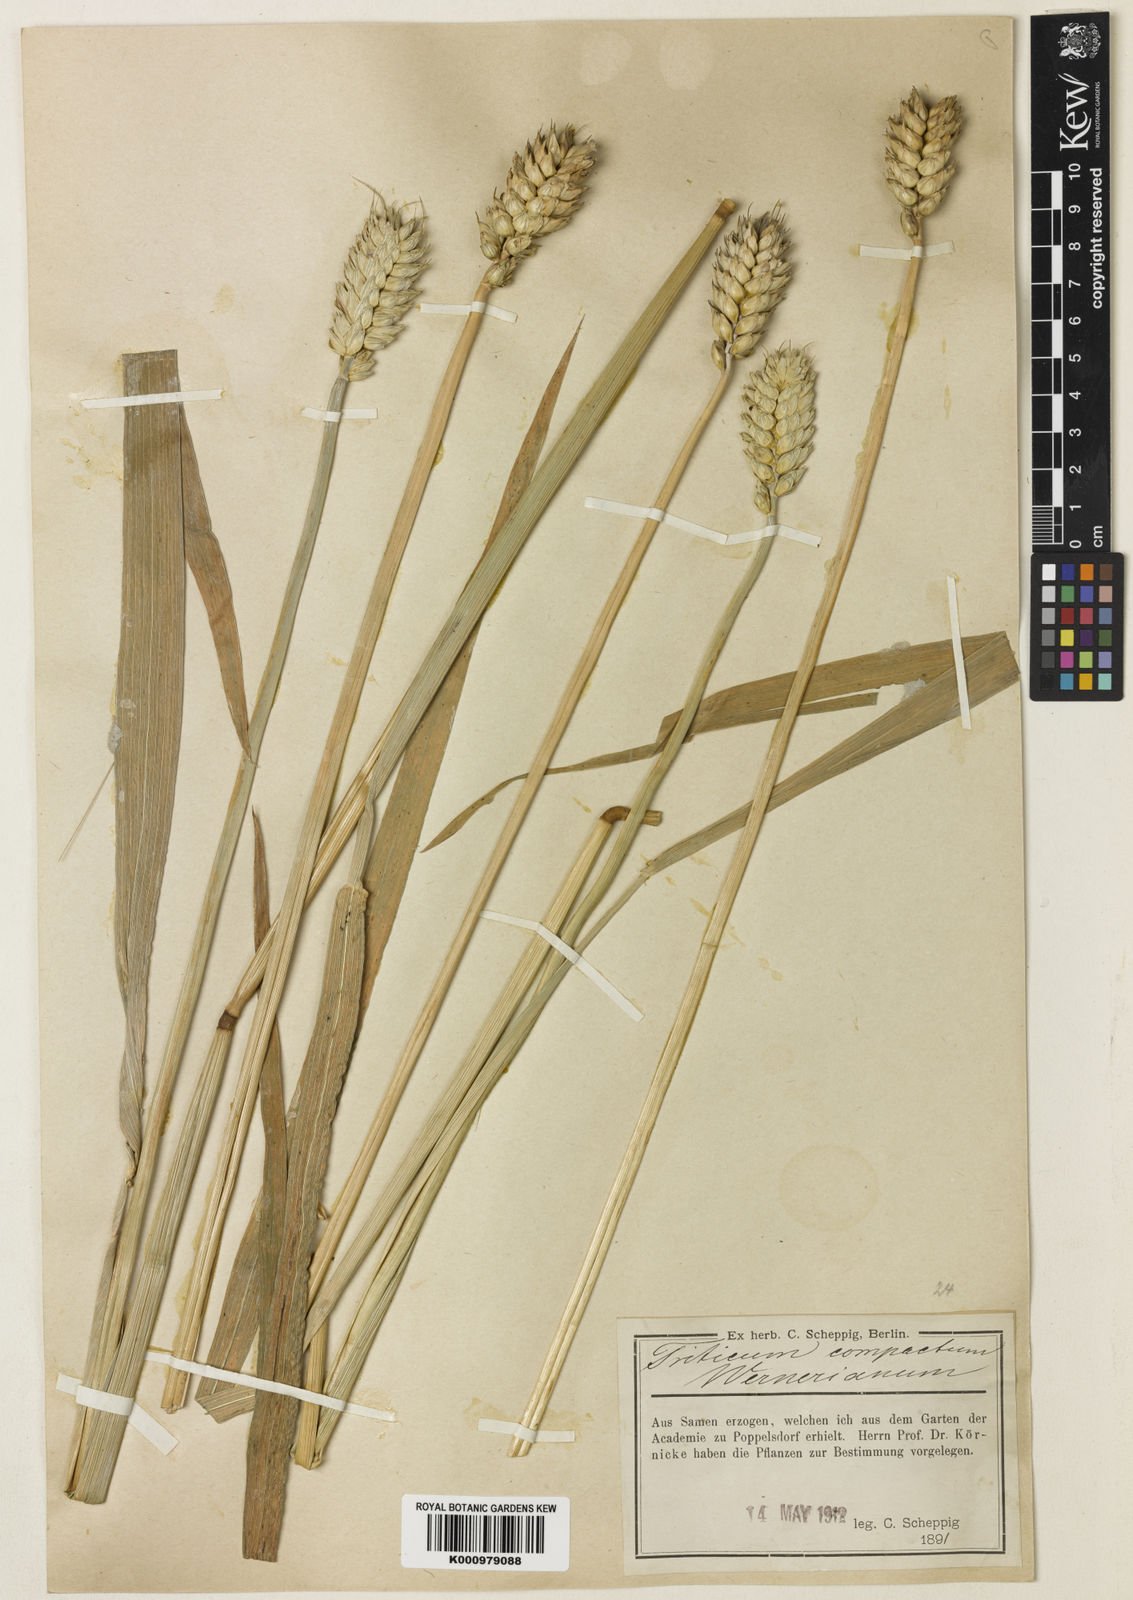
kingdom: Plantae
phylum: Tracheophyta
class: Liliopsida
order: Poales
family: Poaceae
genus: Triticum
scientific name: Triticum aestivum
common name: Common wheat
